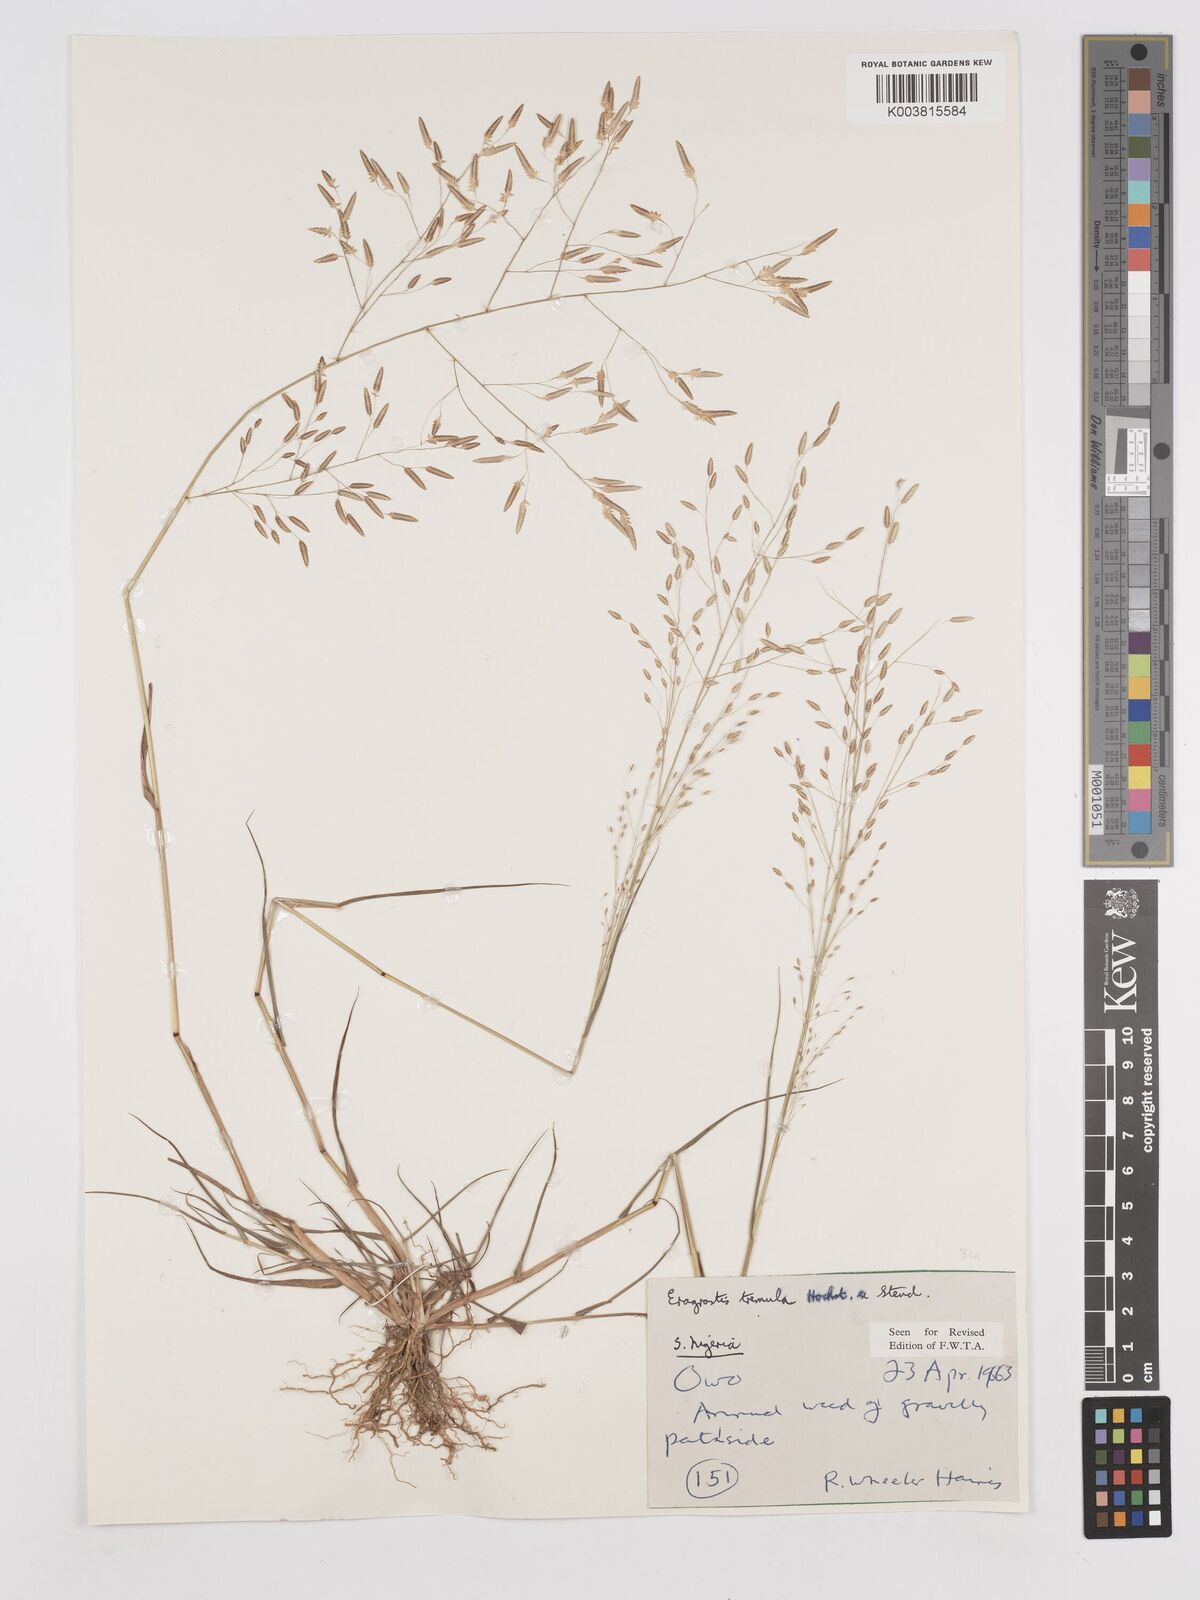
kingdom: Plantae
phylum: Tracheophyta
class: Liliopsida
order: Poales
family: Poaceae
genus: Eragrostis
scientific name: Eragrostis tremula
